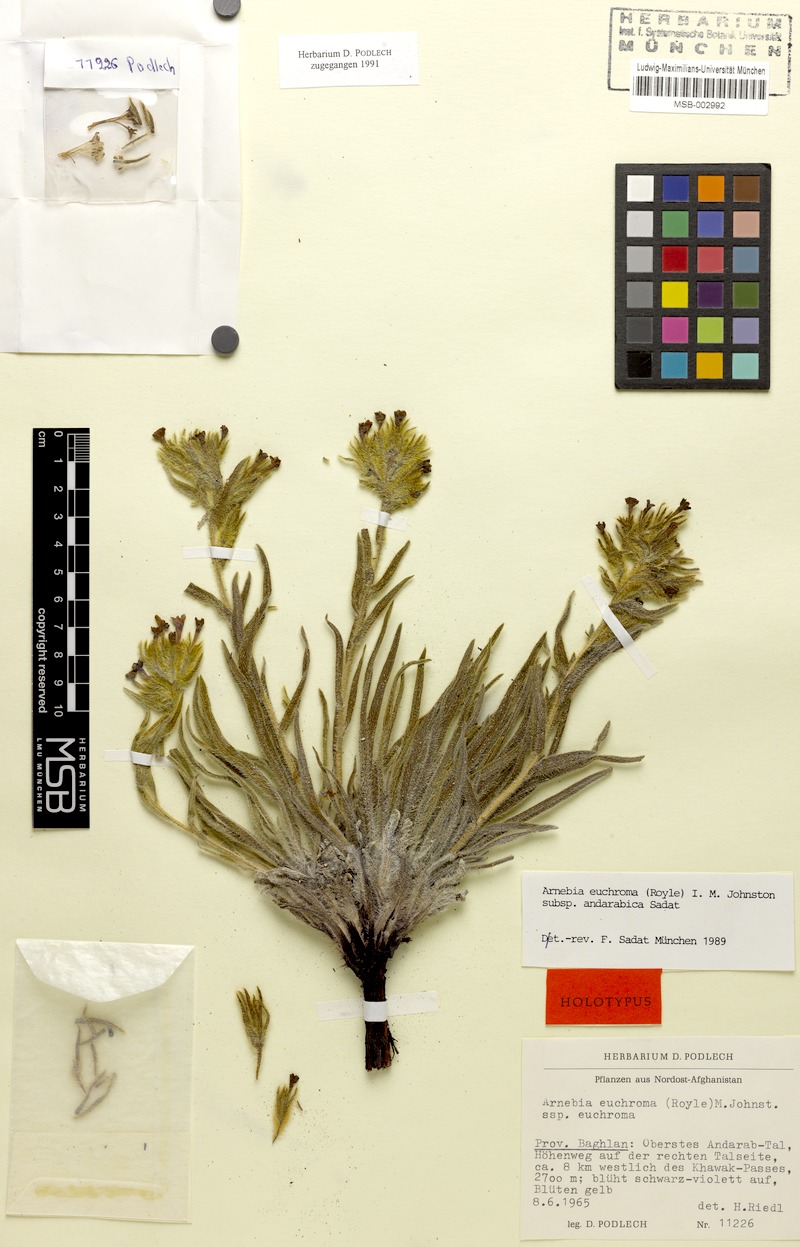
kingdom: Plantae
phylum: Tracheophyta
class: Magnoliopsida
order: Boraginales
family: Boraginaceae
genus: Arnebia
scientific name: Arnebia euchroma
